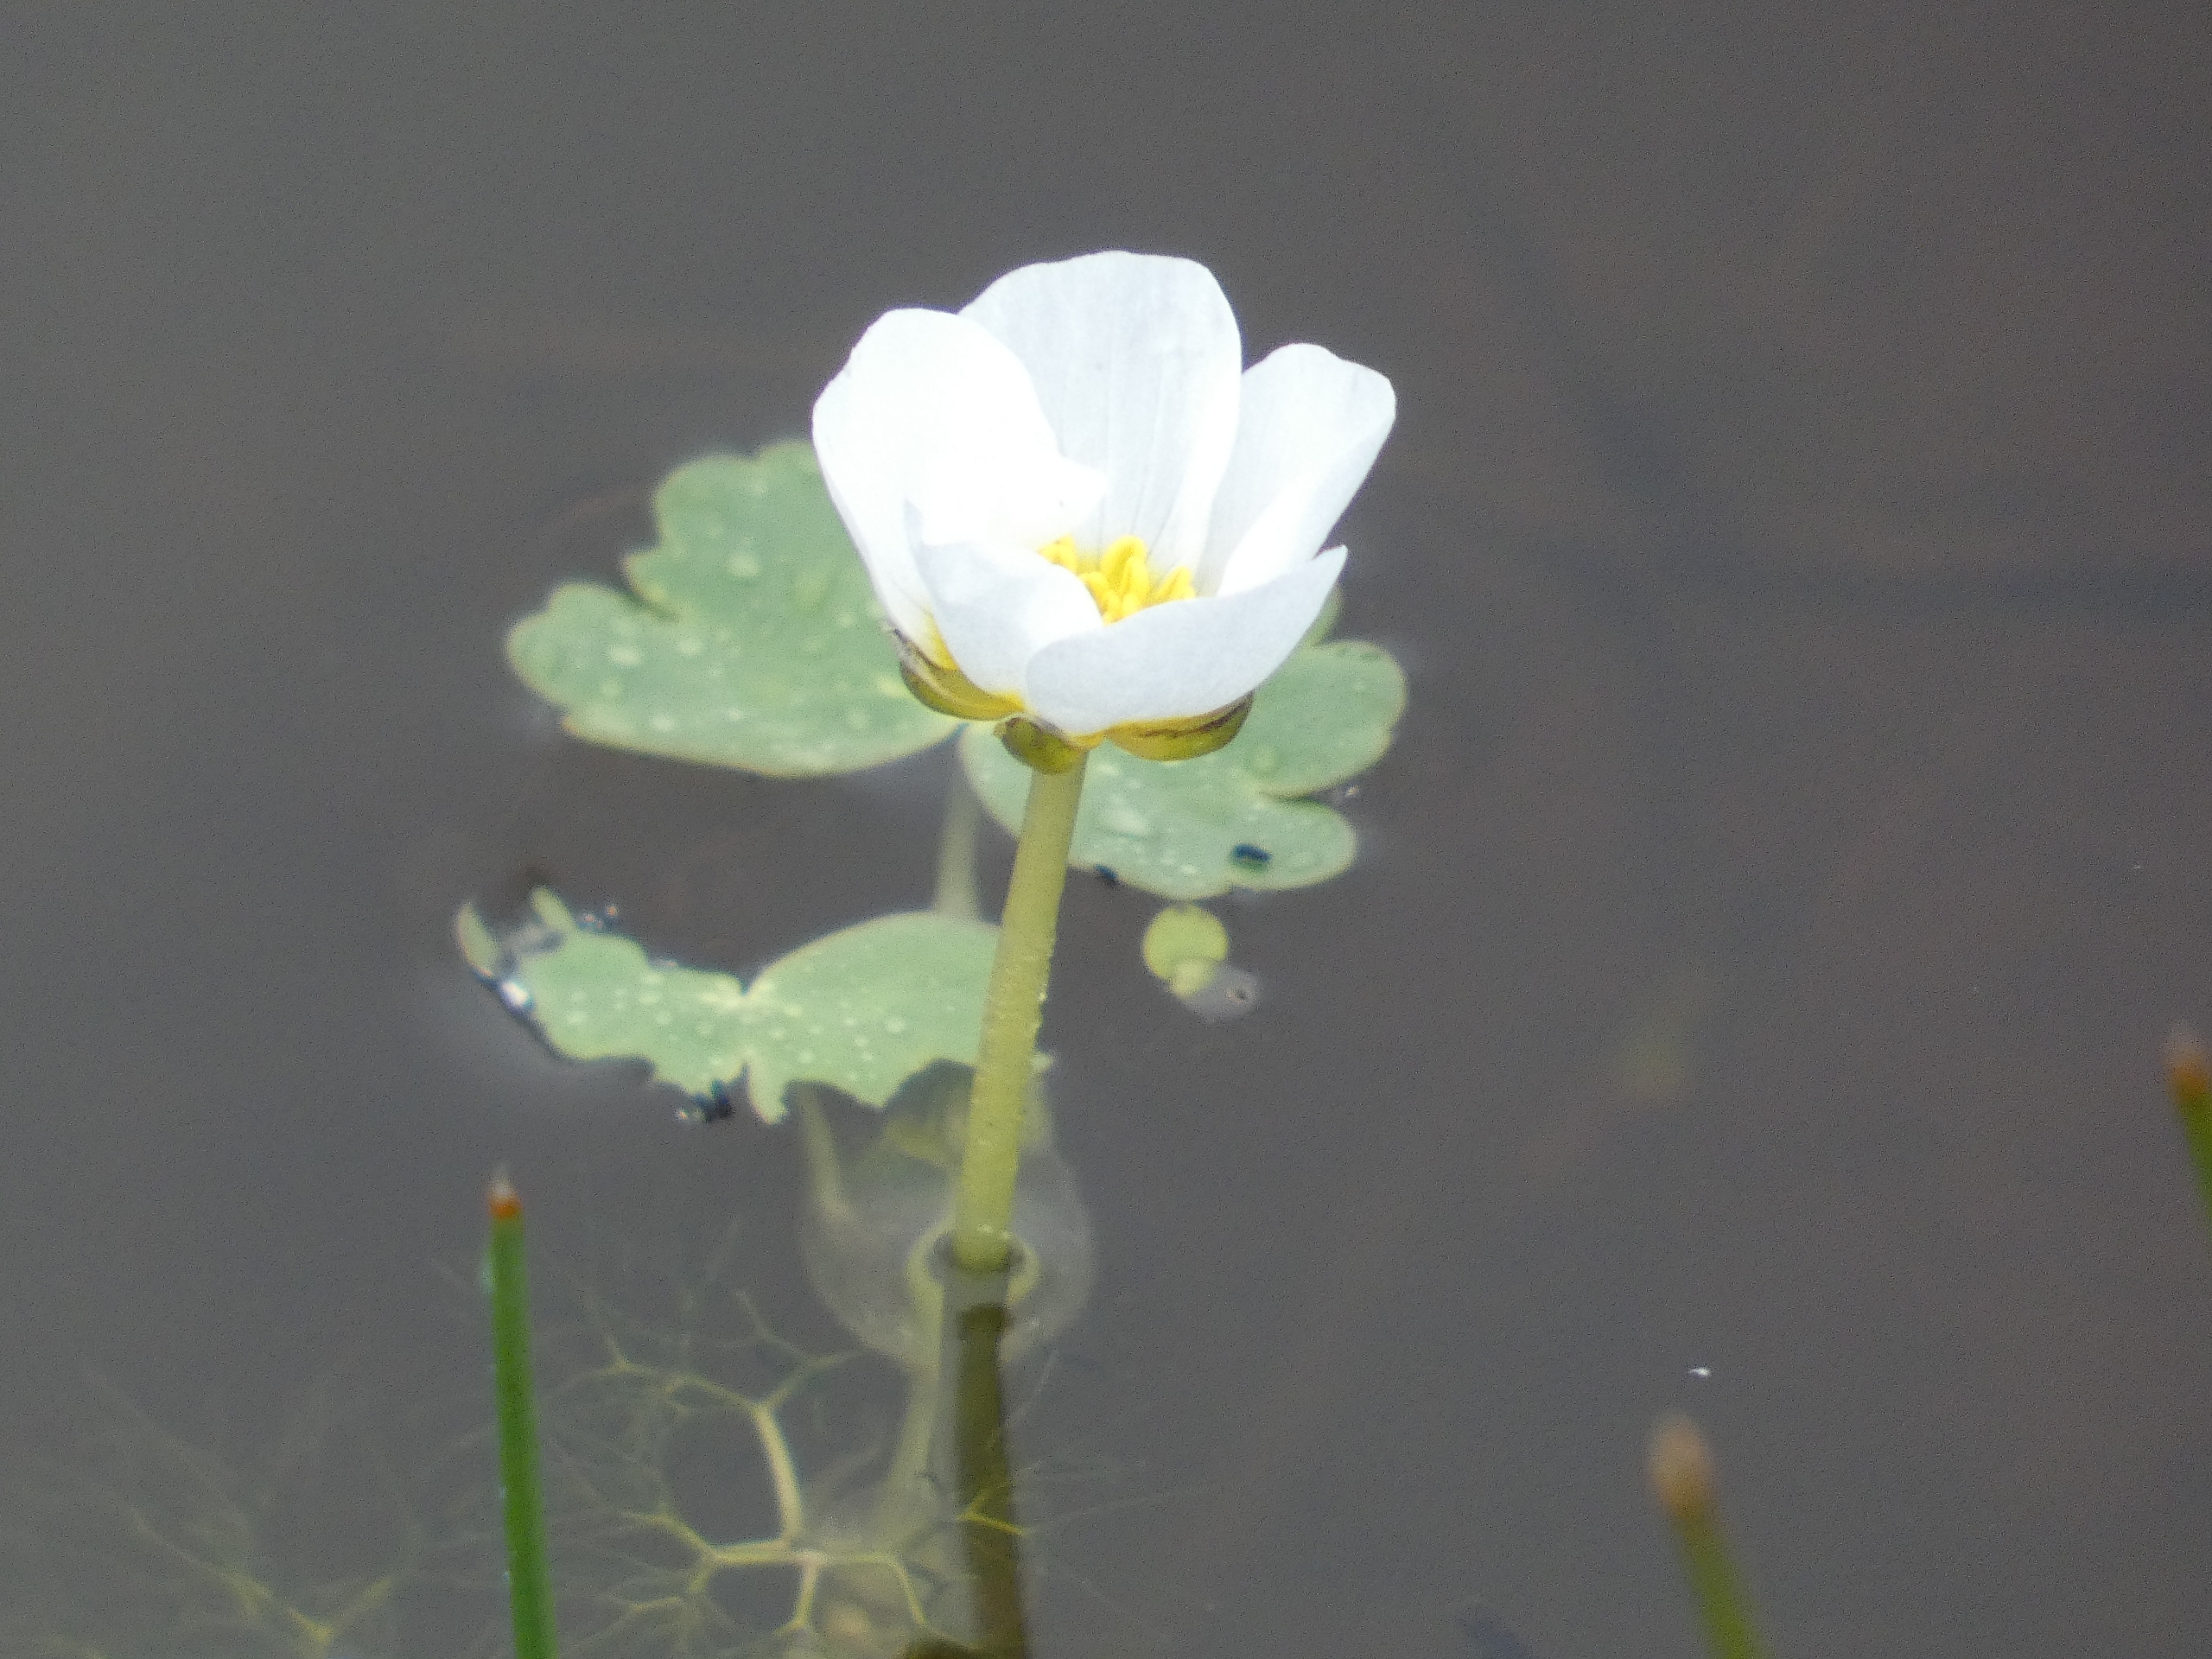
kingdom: Plantae
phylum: Tracheophyta
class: Magnoliopsida
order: Ranunculales
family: Ranunculaceae
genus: Ranunculus
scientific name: Ranunculus peltatus
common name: Storblomstret vandranunkel
